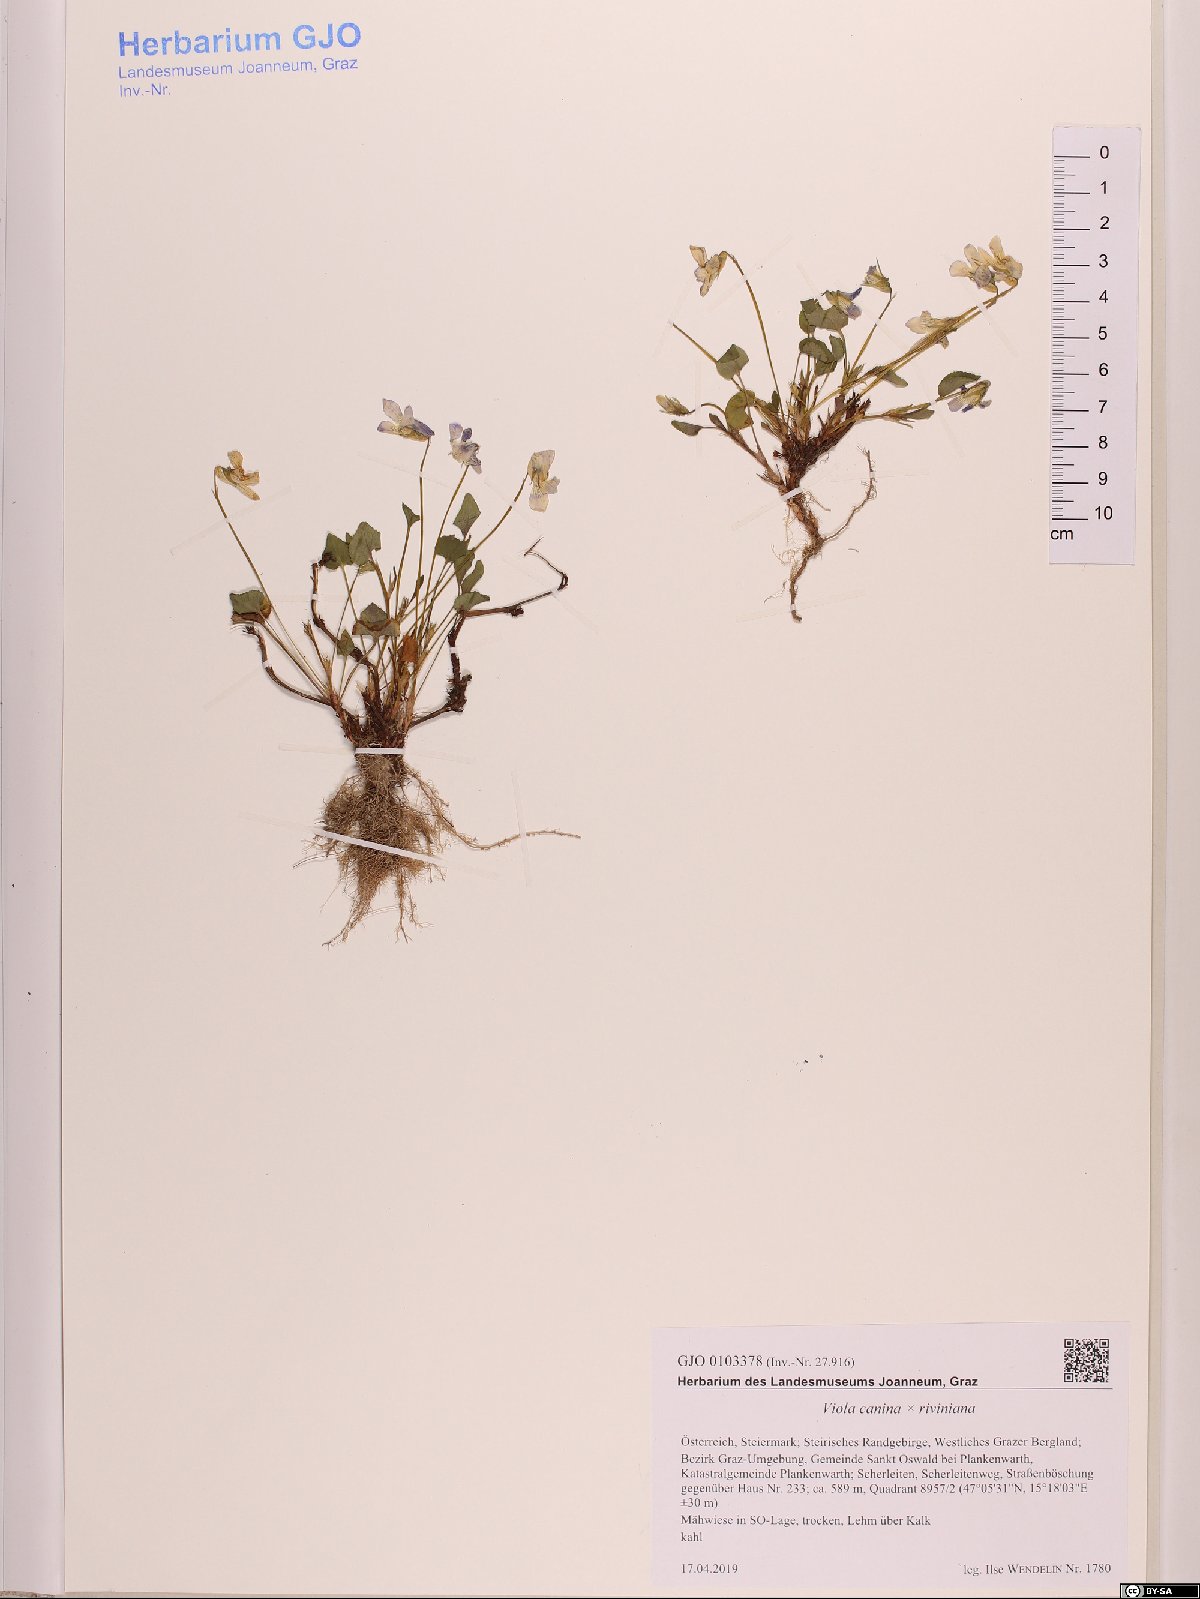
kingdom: Plantae
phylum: Tracheophyta
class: Magnoliopsida
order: Malpighiales
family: Violaceae
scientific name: Violaceae
